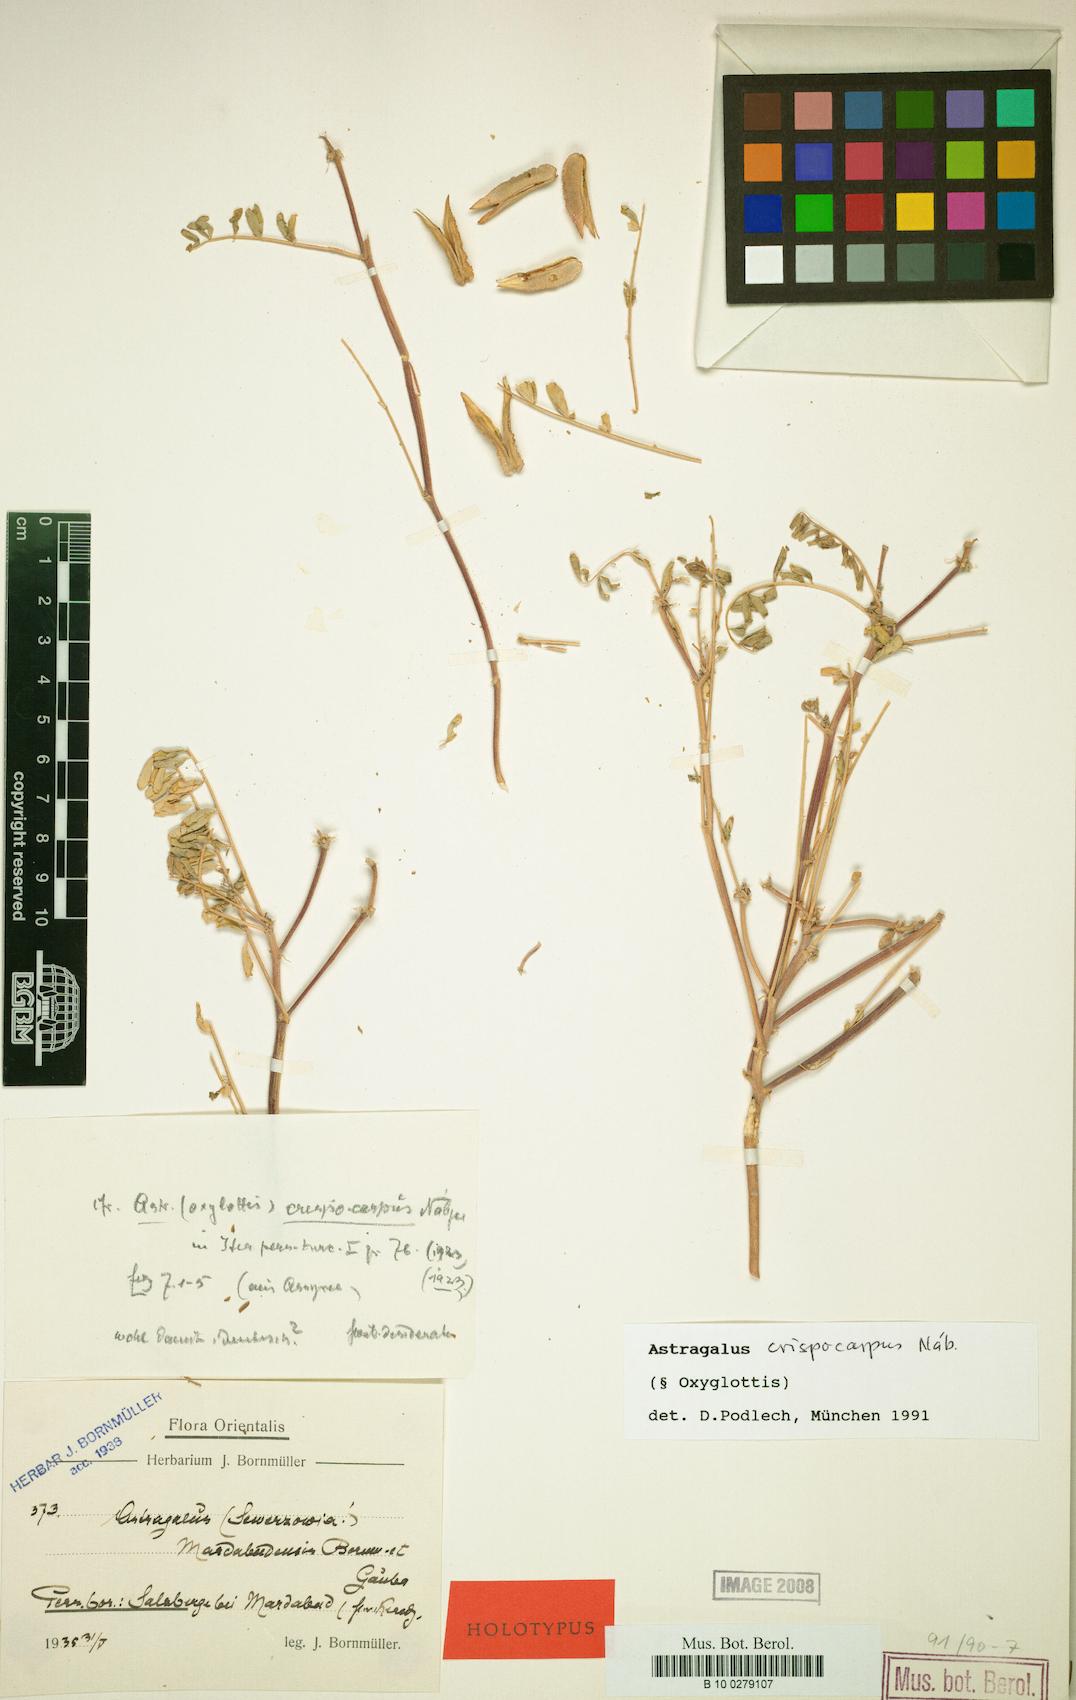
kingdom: Plantae
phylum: Tracheophyta
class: Magnoliopsida
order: Fabales
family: Fabaceae
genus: Astragalus
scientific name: Astragalus crispocarpus
